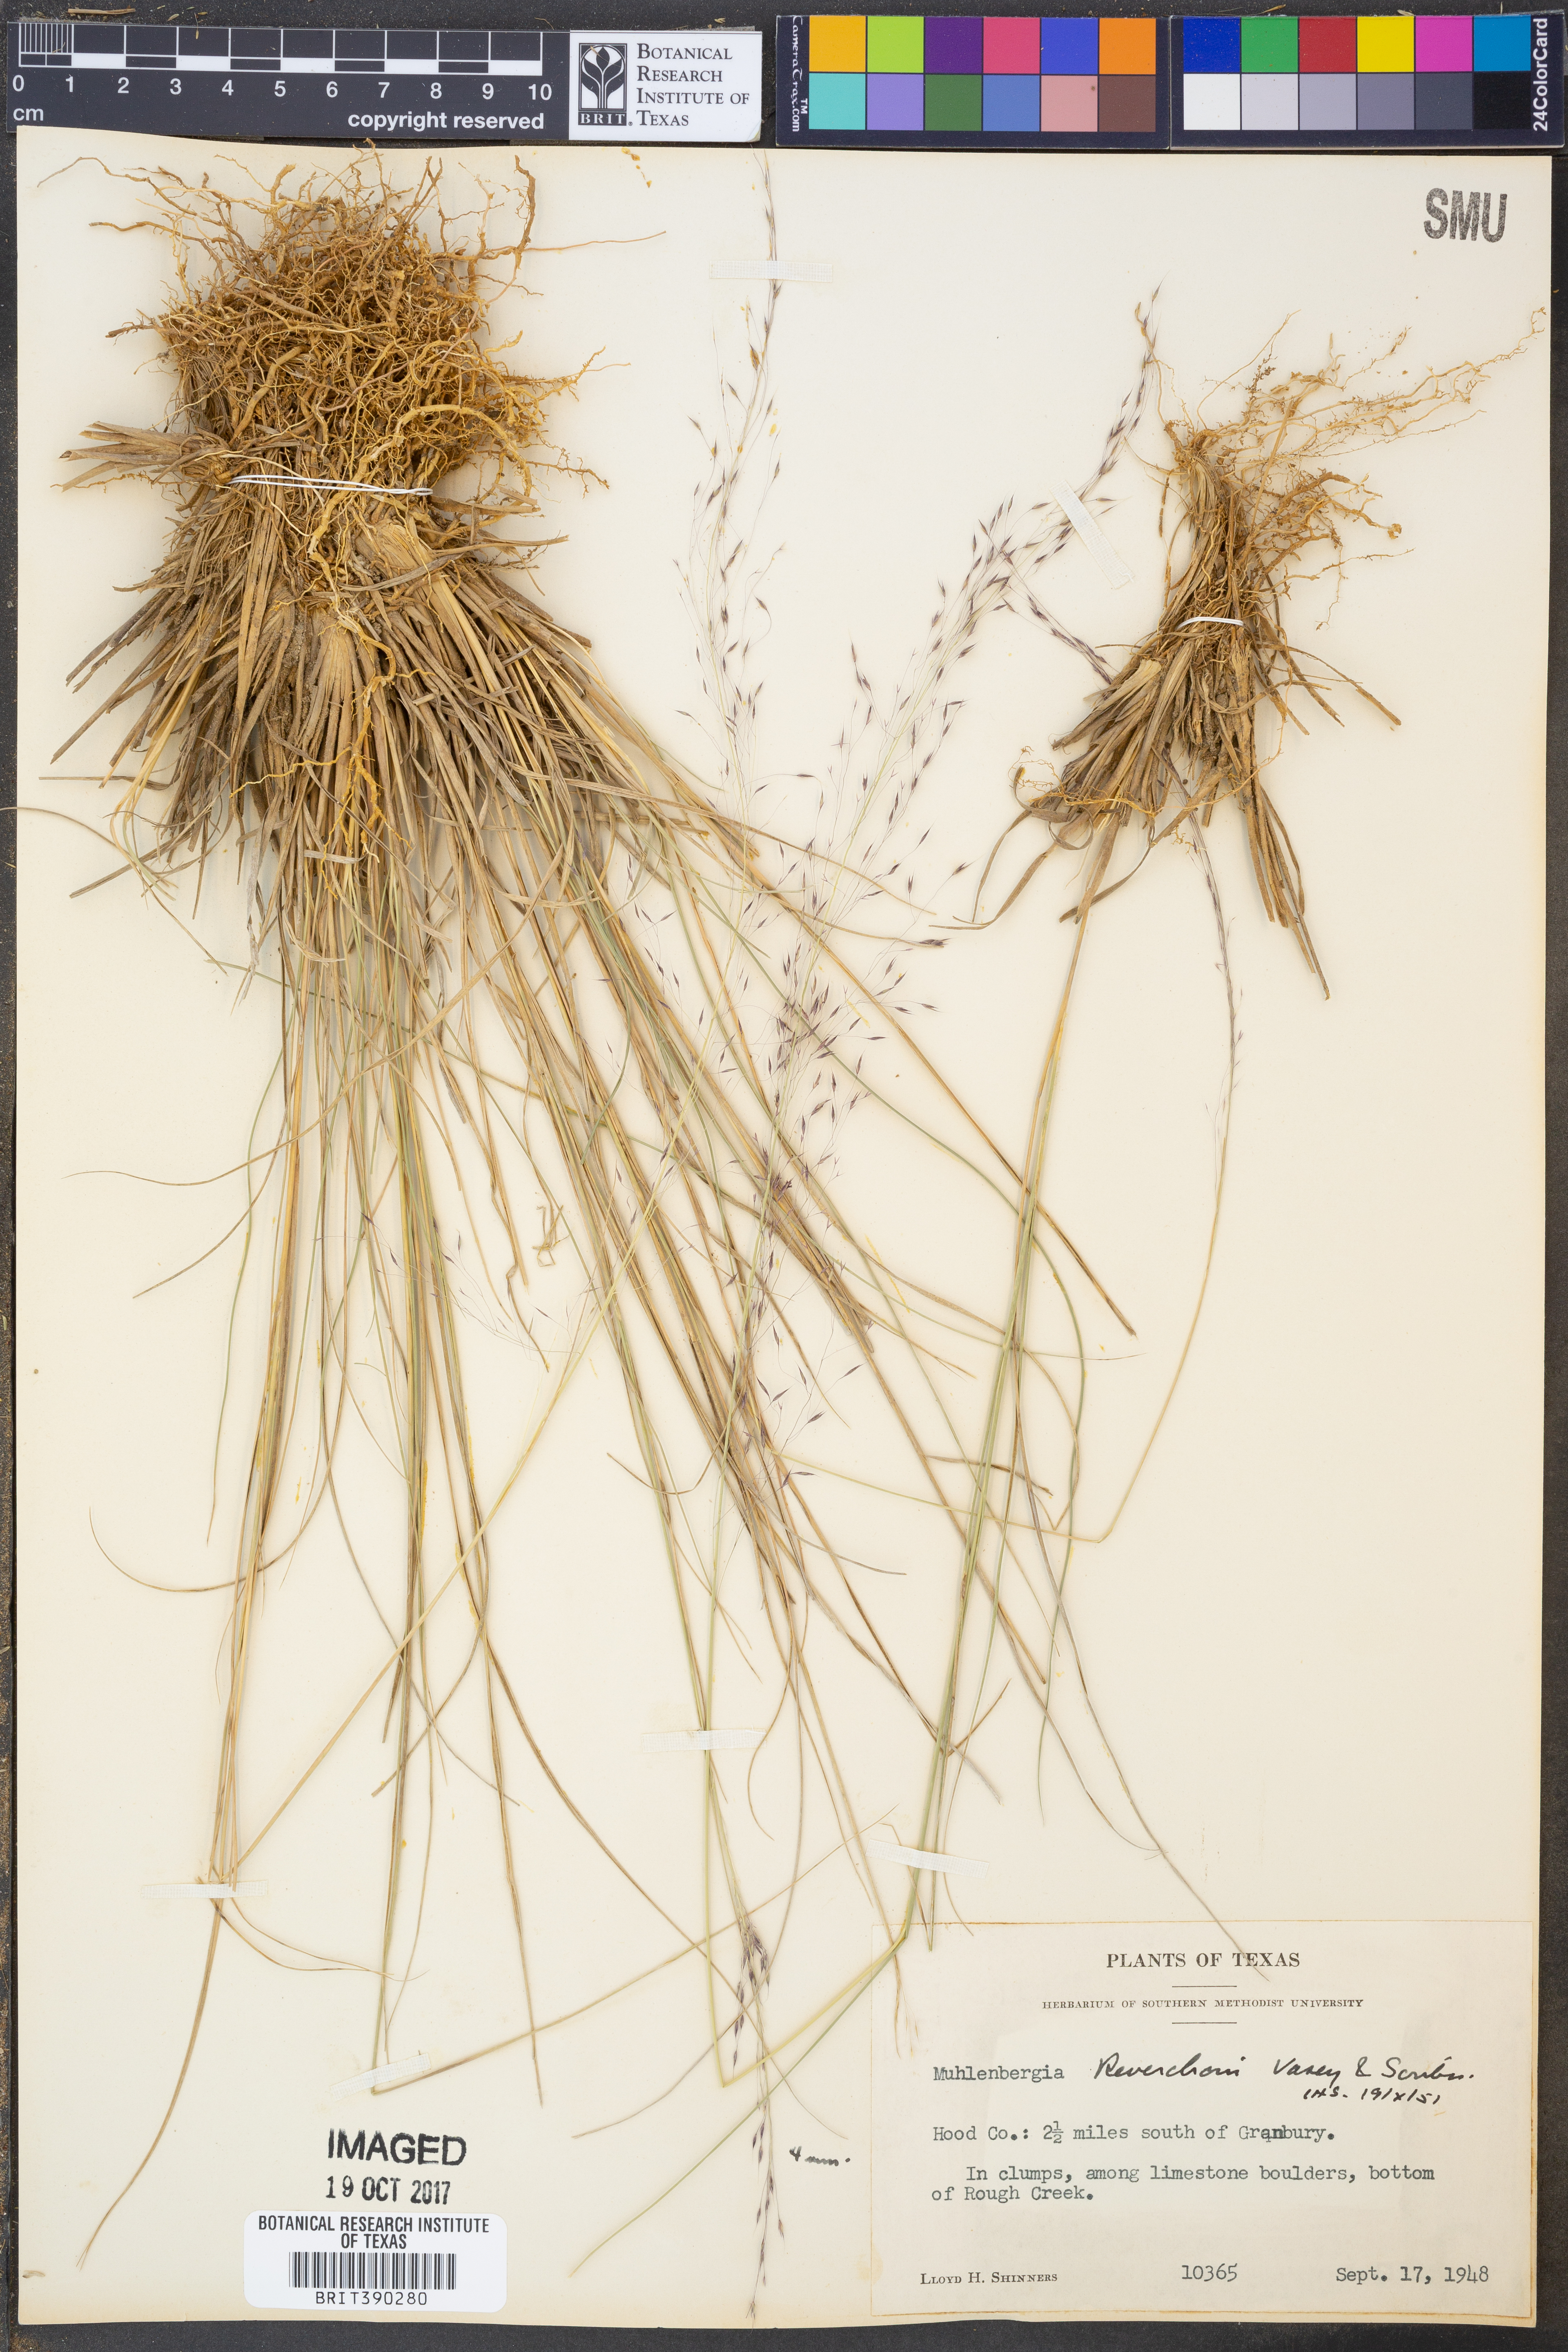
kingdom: Plantae
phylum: Tracheophyta
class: Liliopsida
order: Poales
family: Poaceae
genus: Muhlenbergia
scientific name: Muhlenbergia reverchonii
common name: Seep muhly
